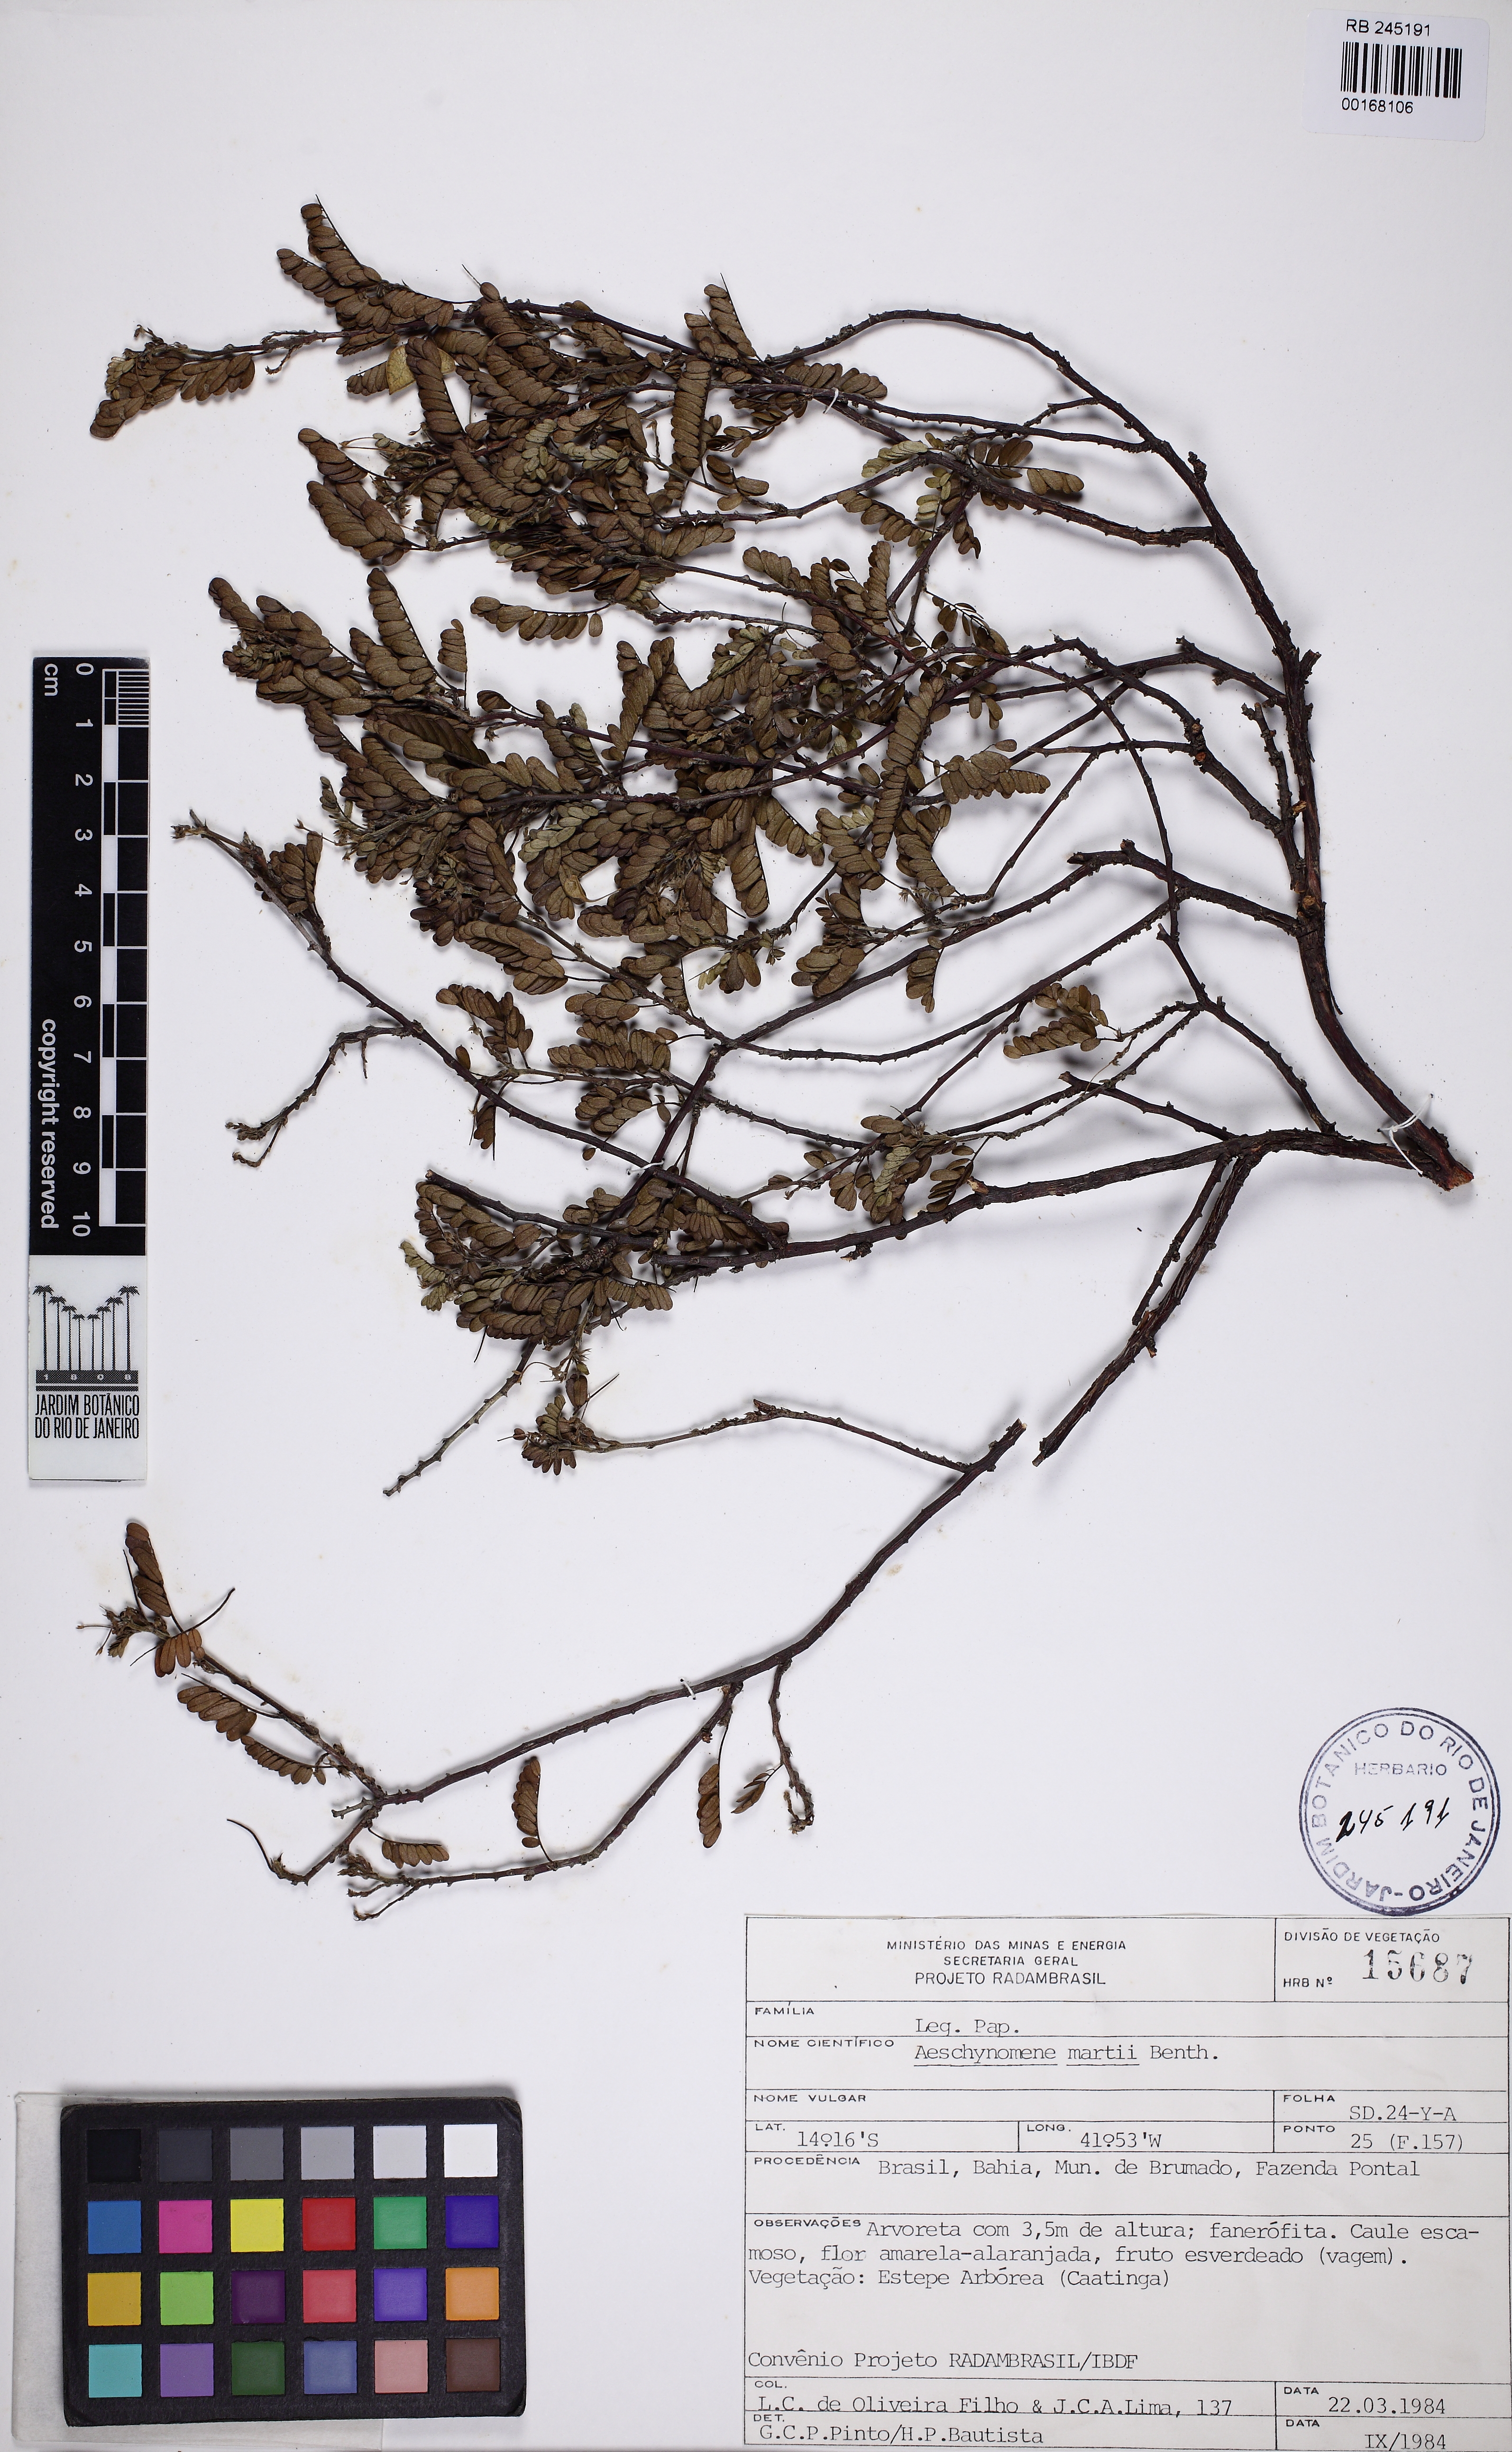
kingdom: Plantae
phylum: Tracheophyta
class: Magnoliopsida
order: Fabales
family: Fabaceae
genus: Ctenodon
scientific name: Ctenodon martii
